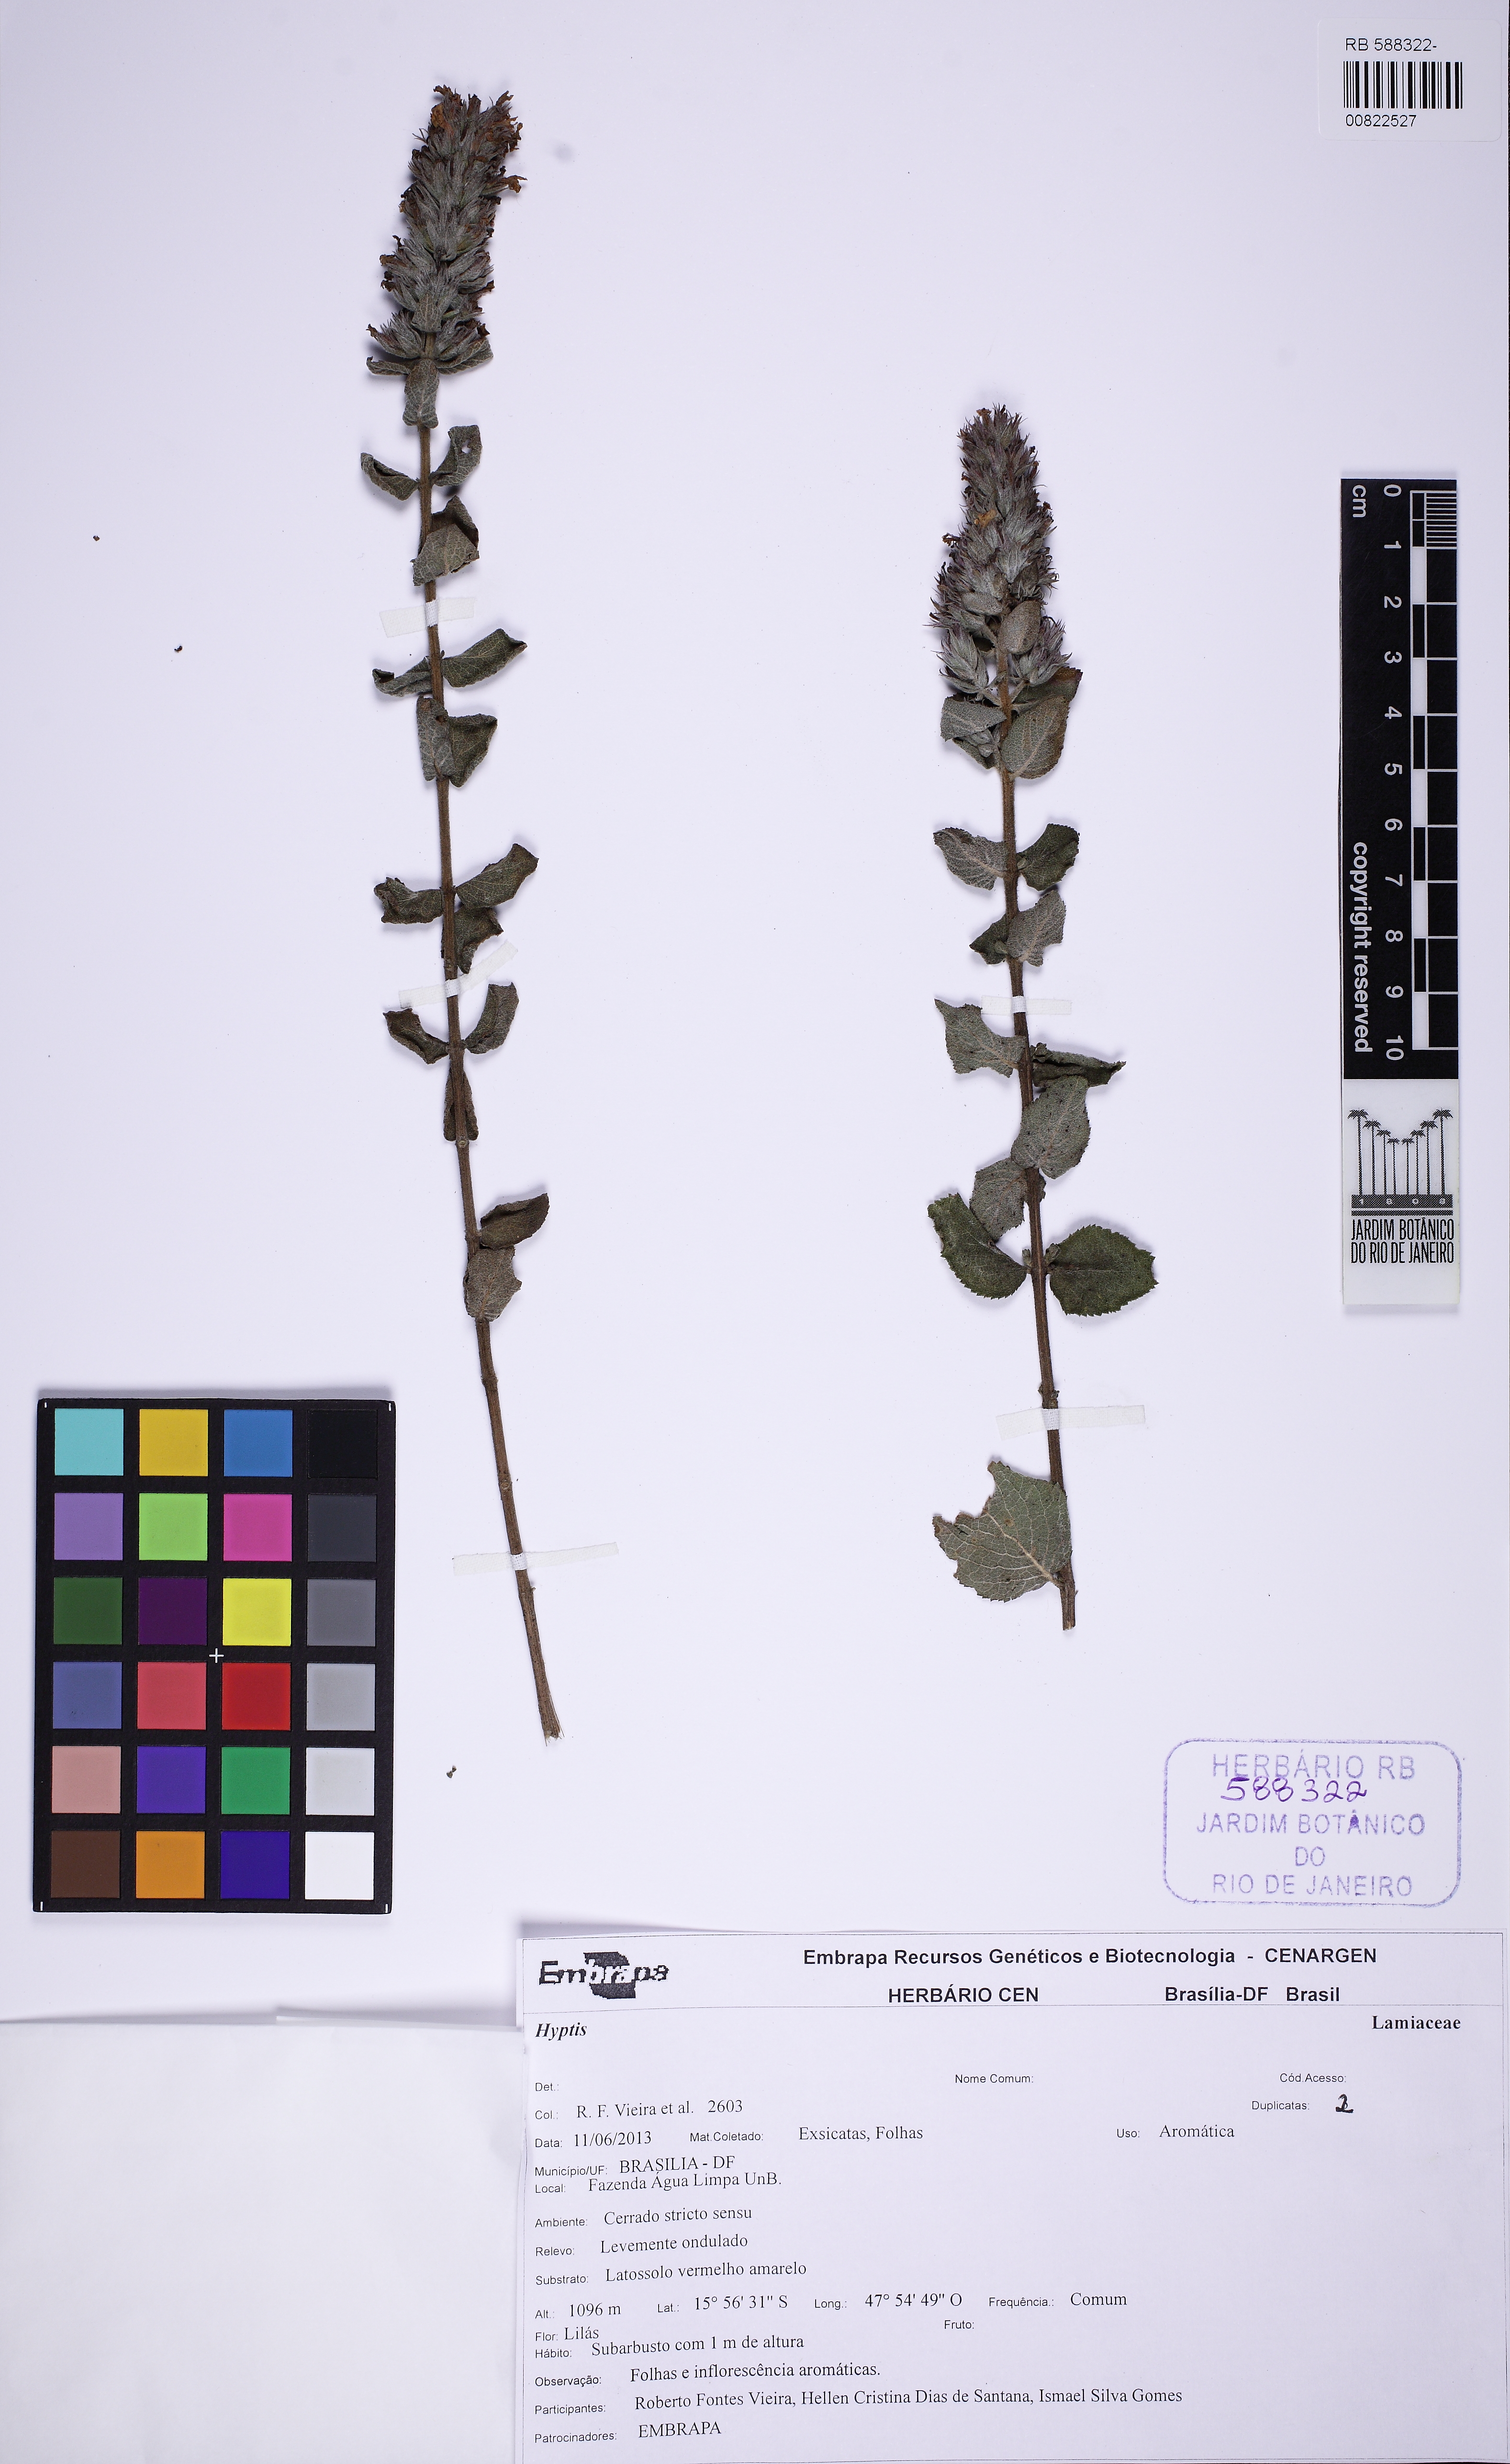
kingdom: Plantae
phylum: Tracheophyta
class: Magnoliopsida
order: Lamiales
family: Lamiaceae
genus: Oocephalus
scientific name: Oocephalus grazielae
